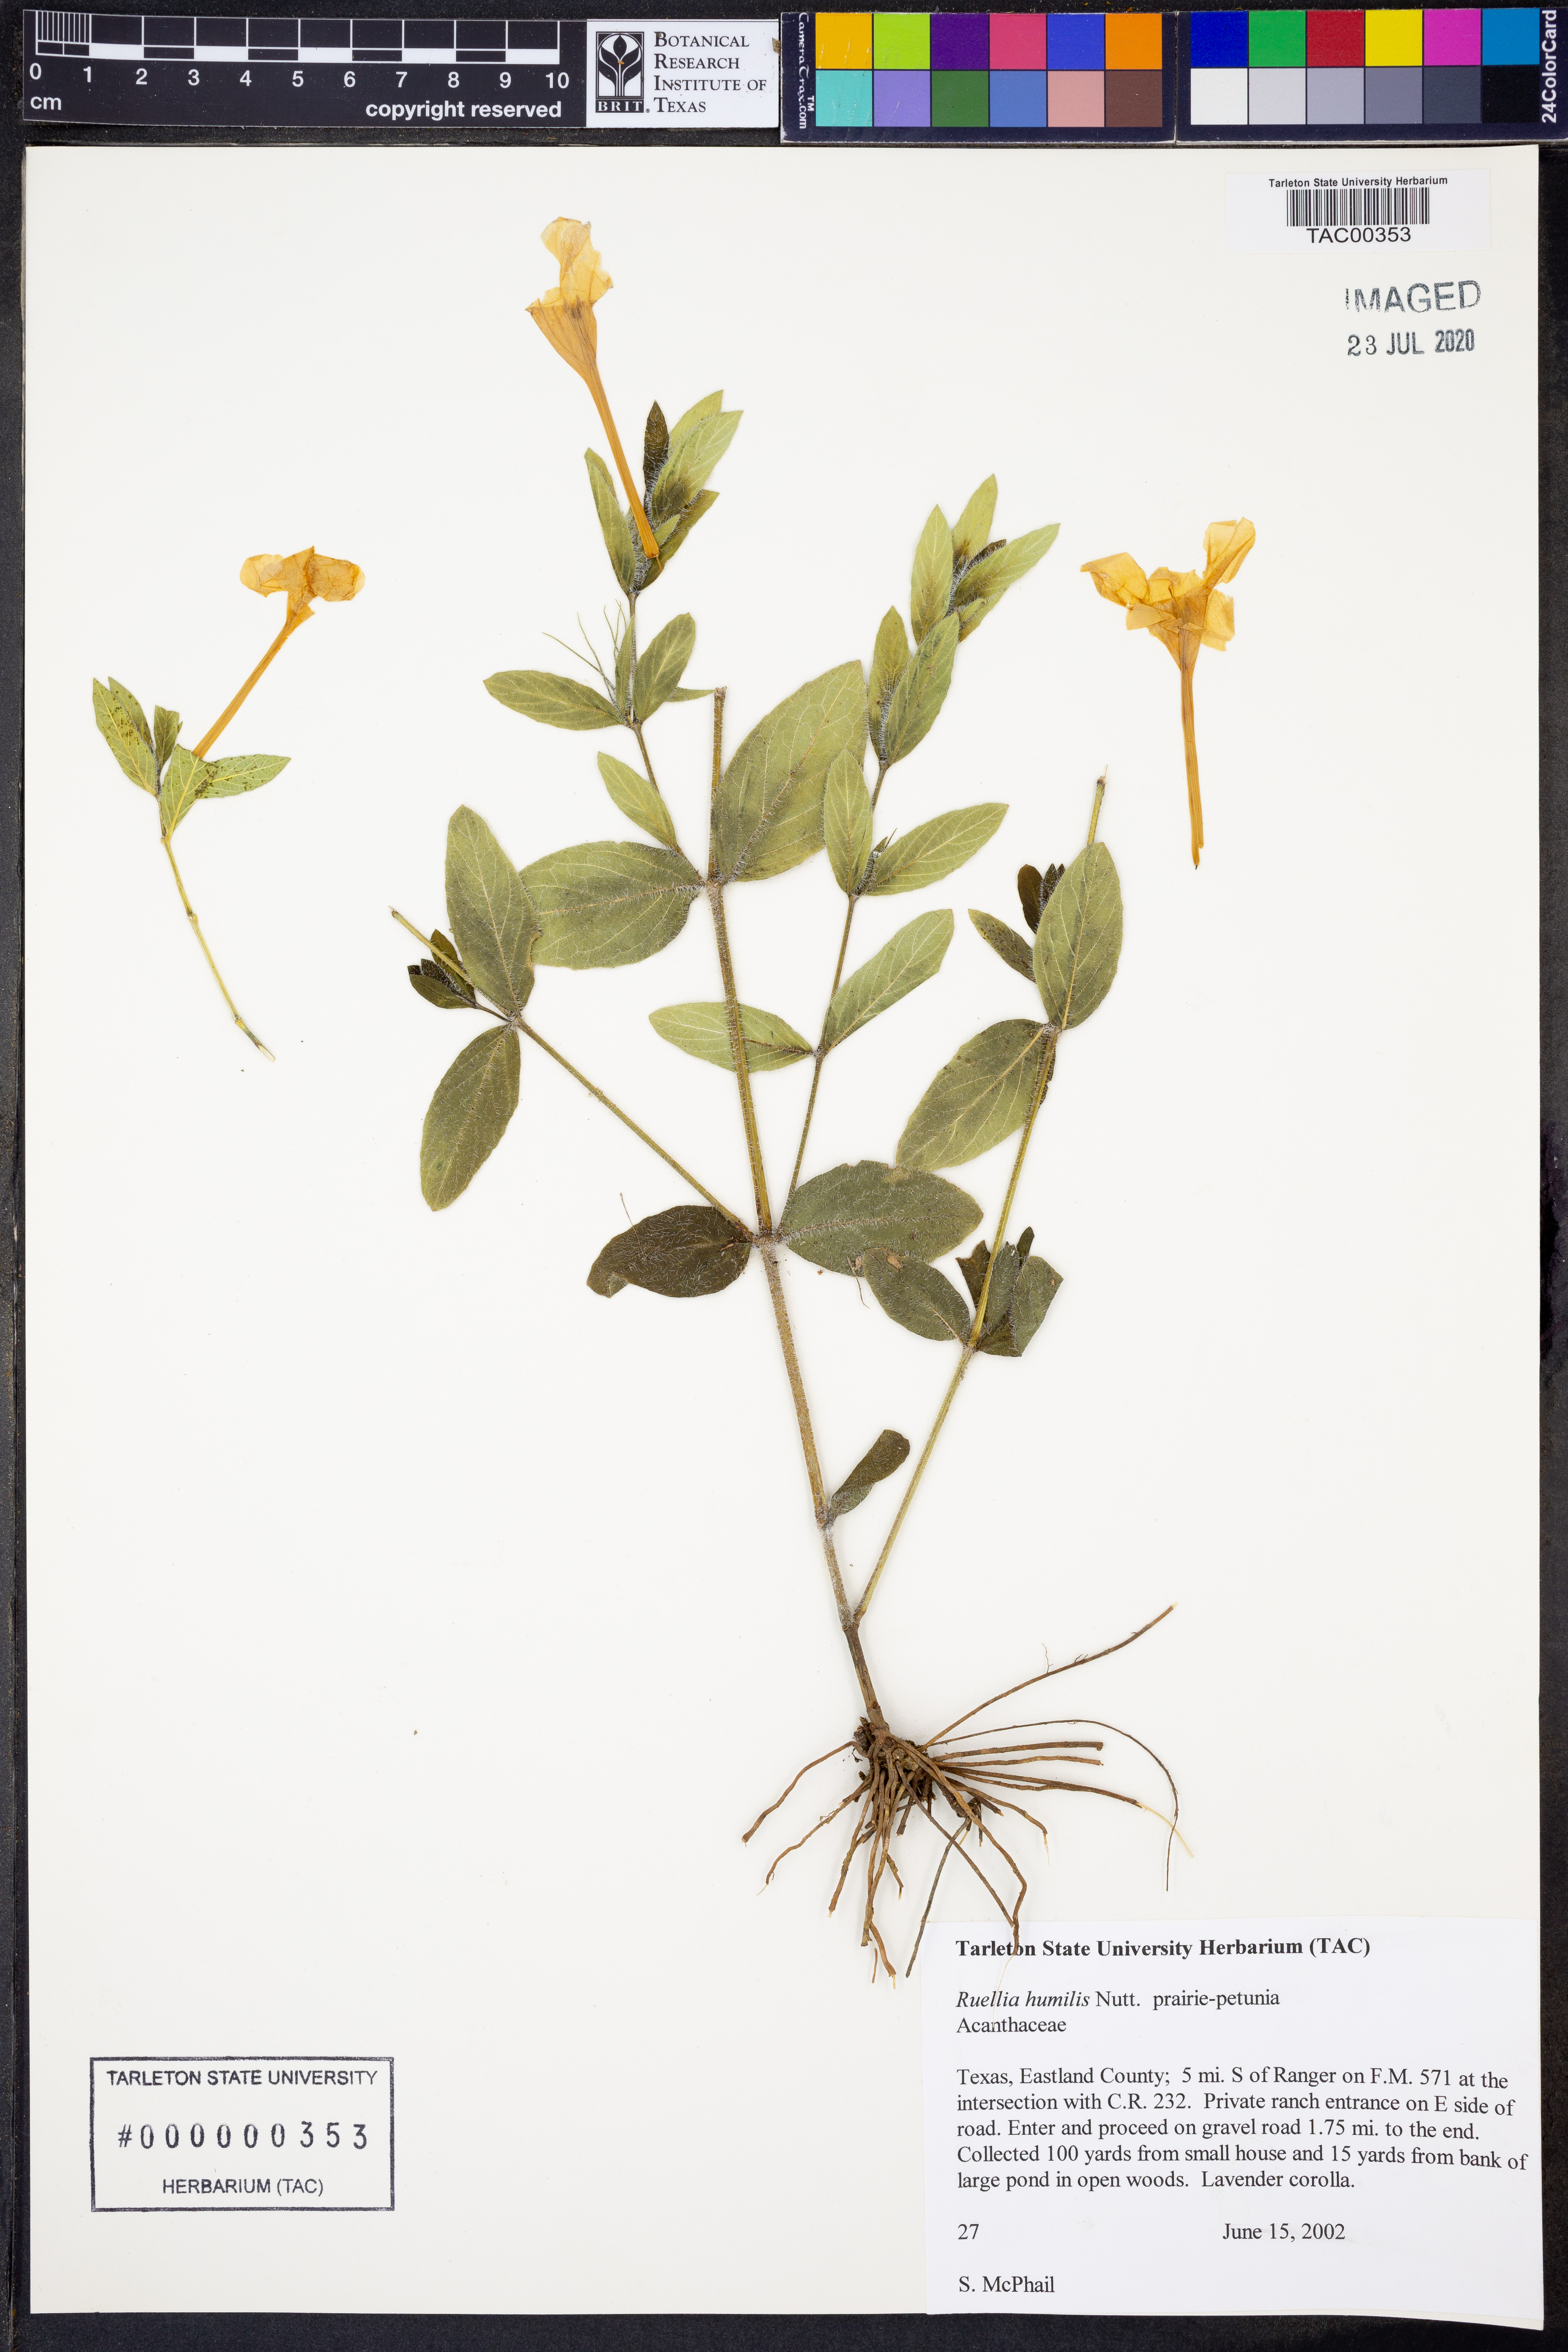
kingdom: Plantae
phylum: Tracheophyta
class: Magnoliopsida
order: Lamiales
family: Acanthaceae
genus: Ruellia
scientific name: Ruellia humilis
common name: Fringe-leaf ruellia
